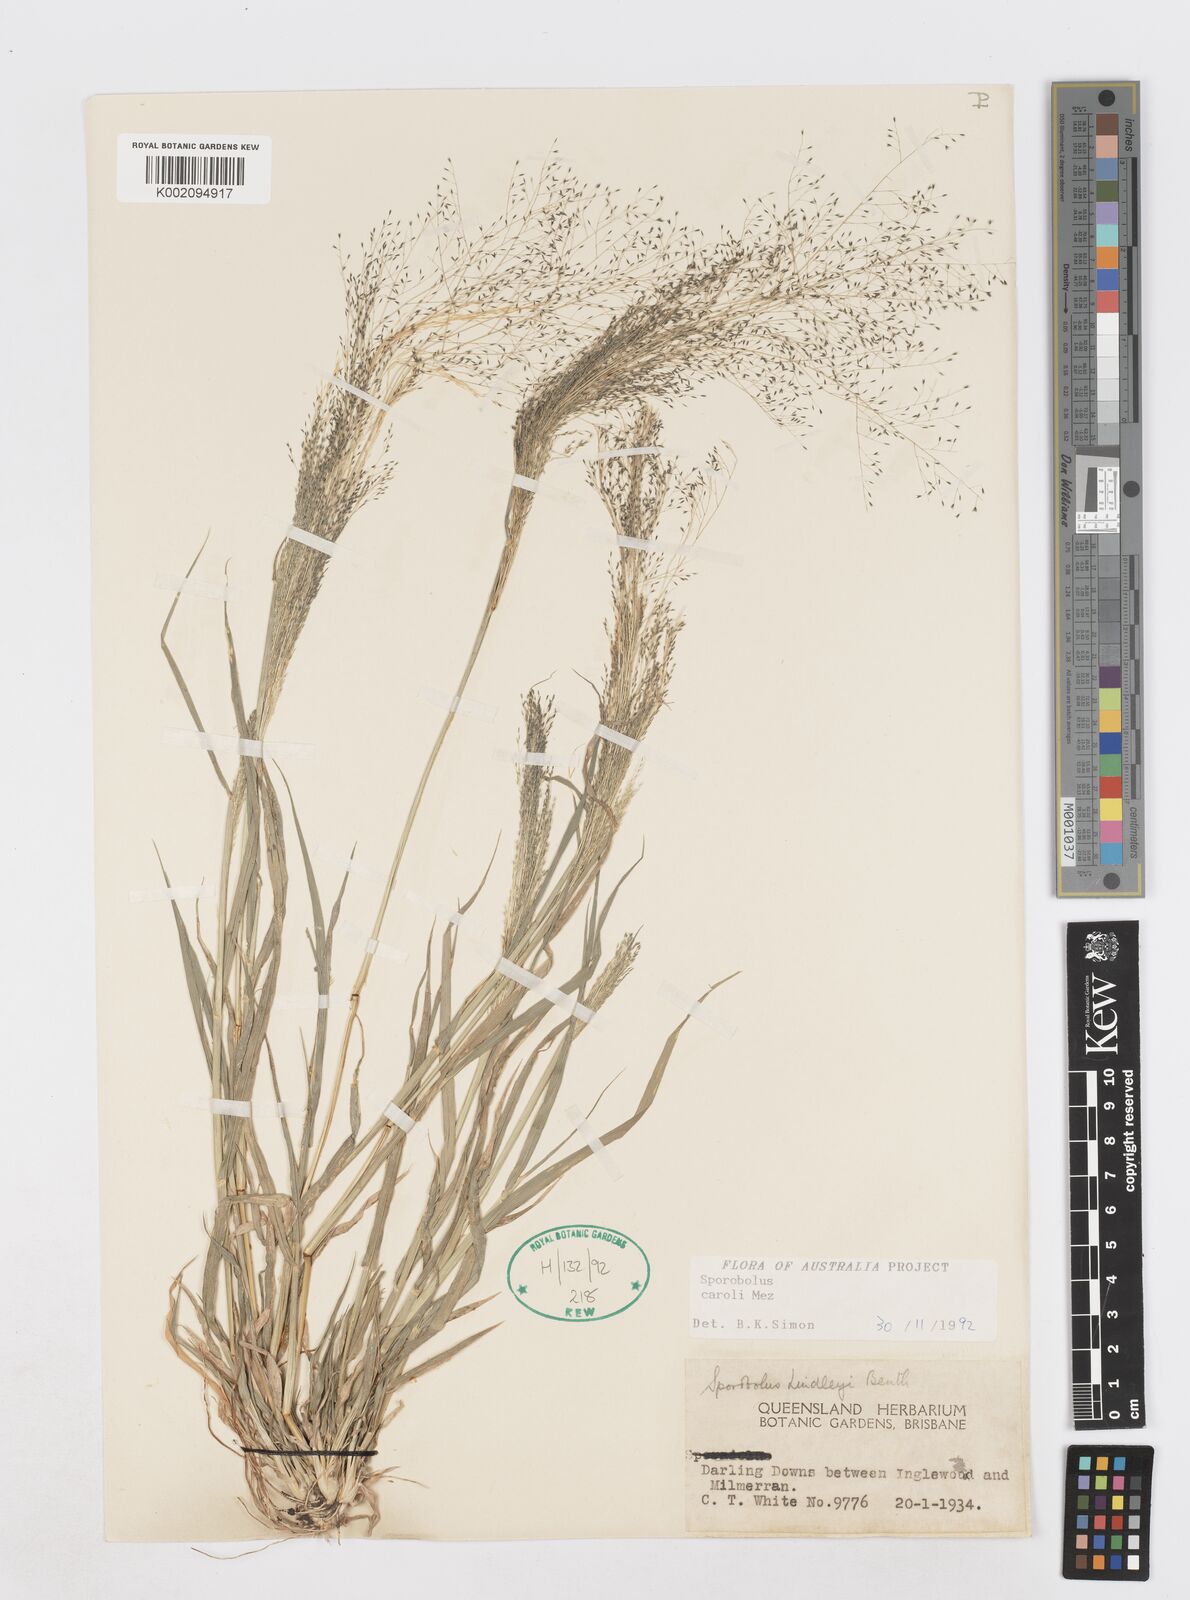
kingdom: Plantae
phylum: Tracheophyta
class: Liliopsida
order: Poales
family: Poaceae
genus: Sporobolus
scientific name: Sporobolus caroli
